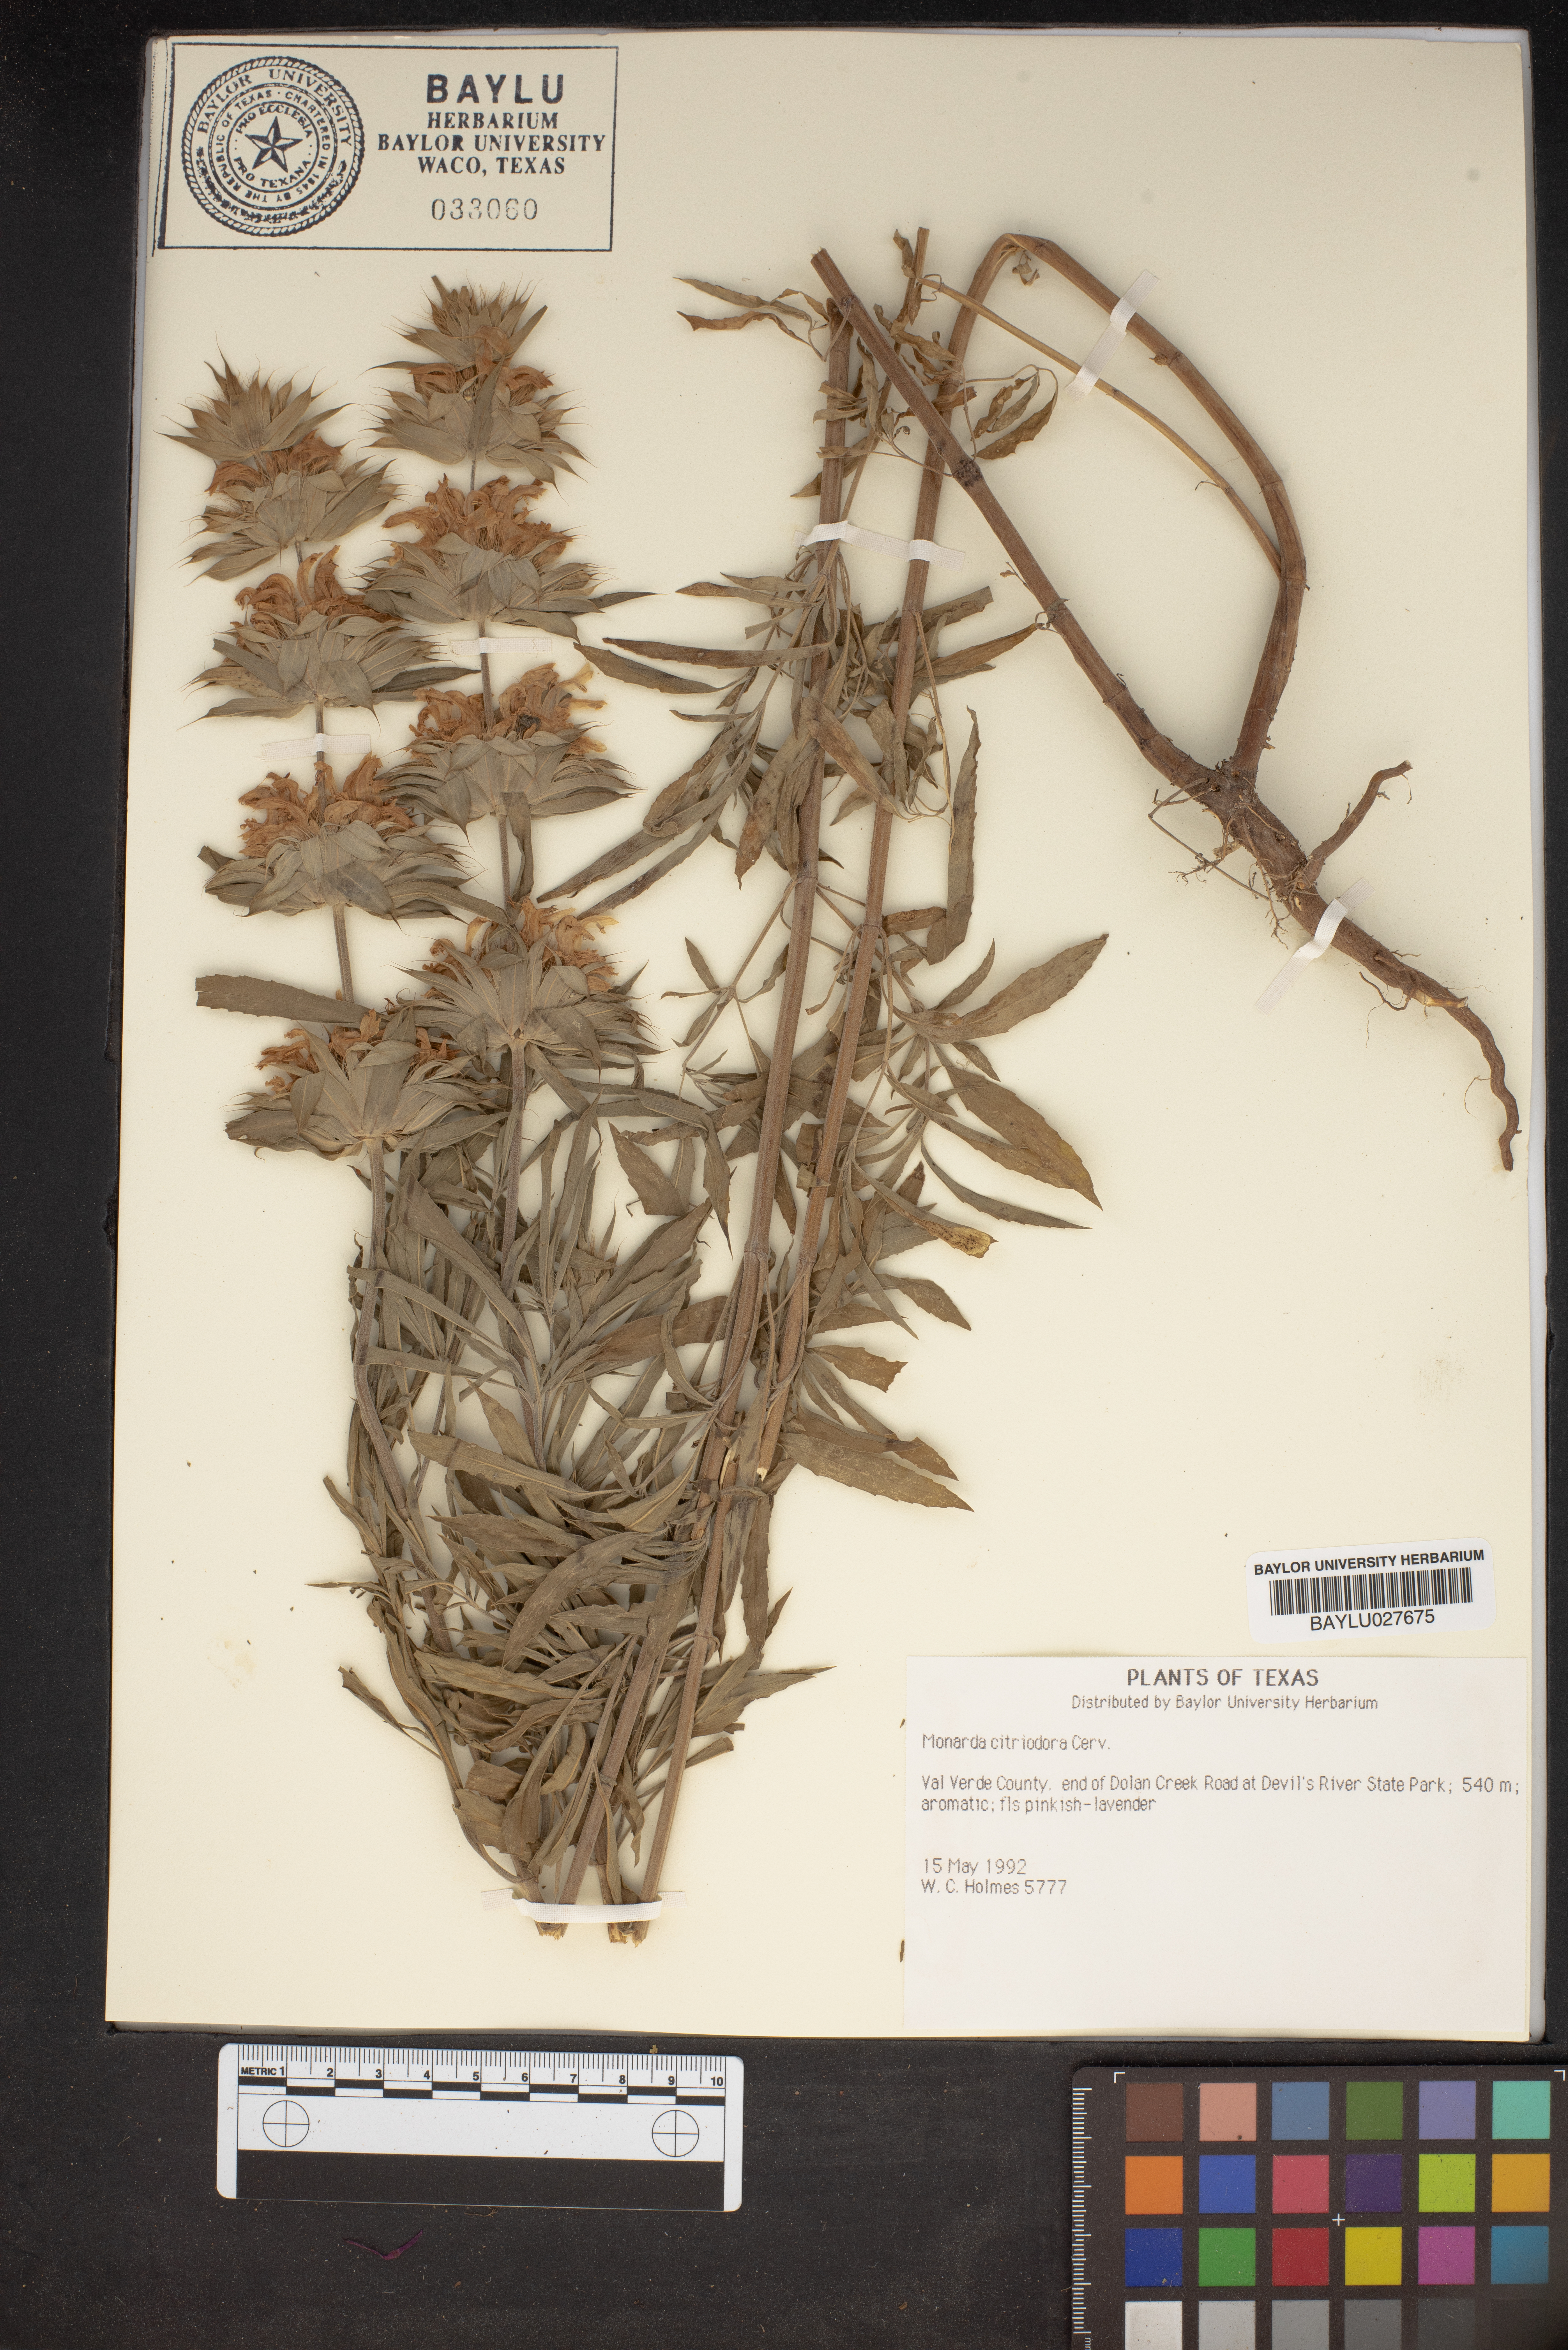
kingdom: Plantae
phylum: Tracheophyta
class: Magnoliopsida
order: Lamiales
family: Lamiaceae
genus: Monarda
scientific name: Monarda citriodora
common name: Lemon beebalm
